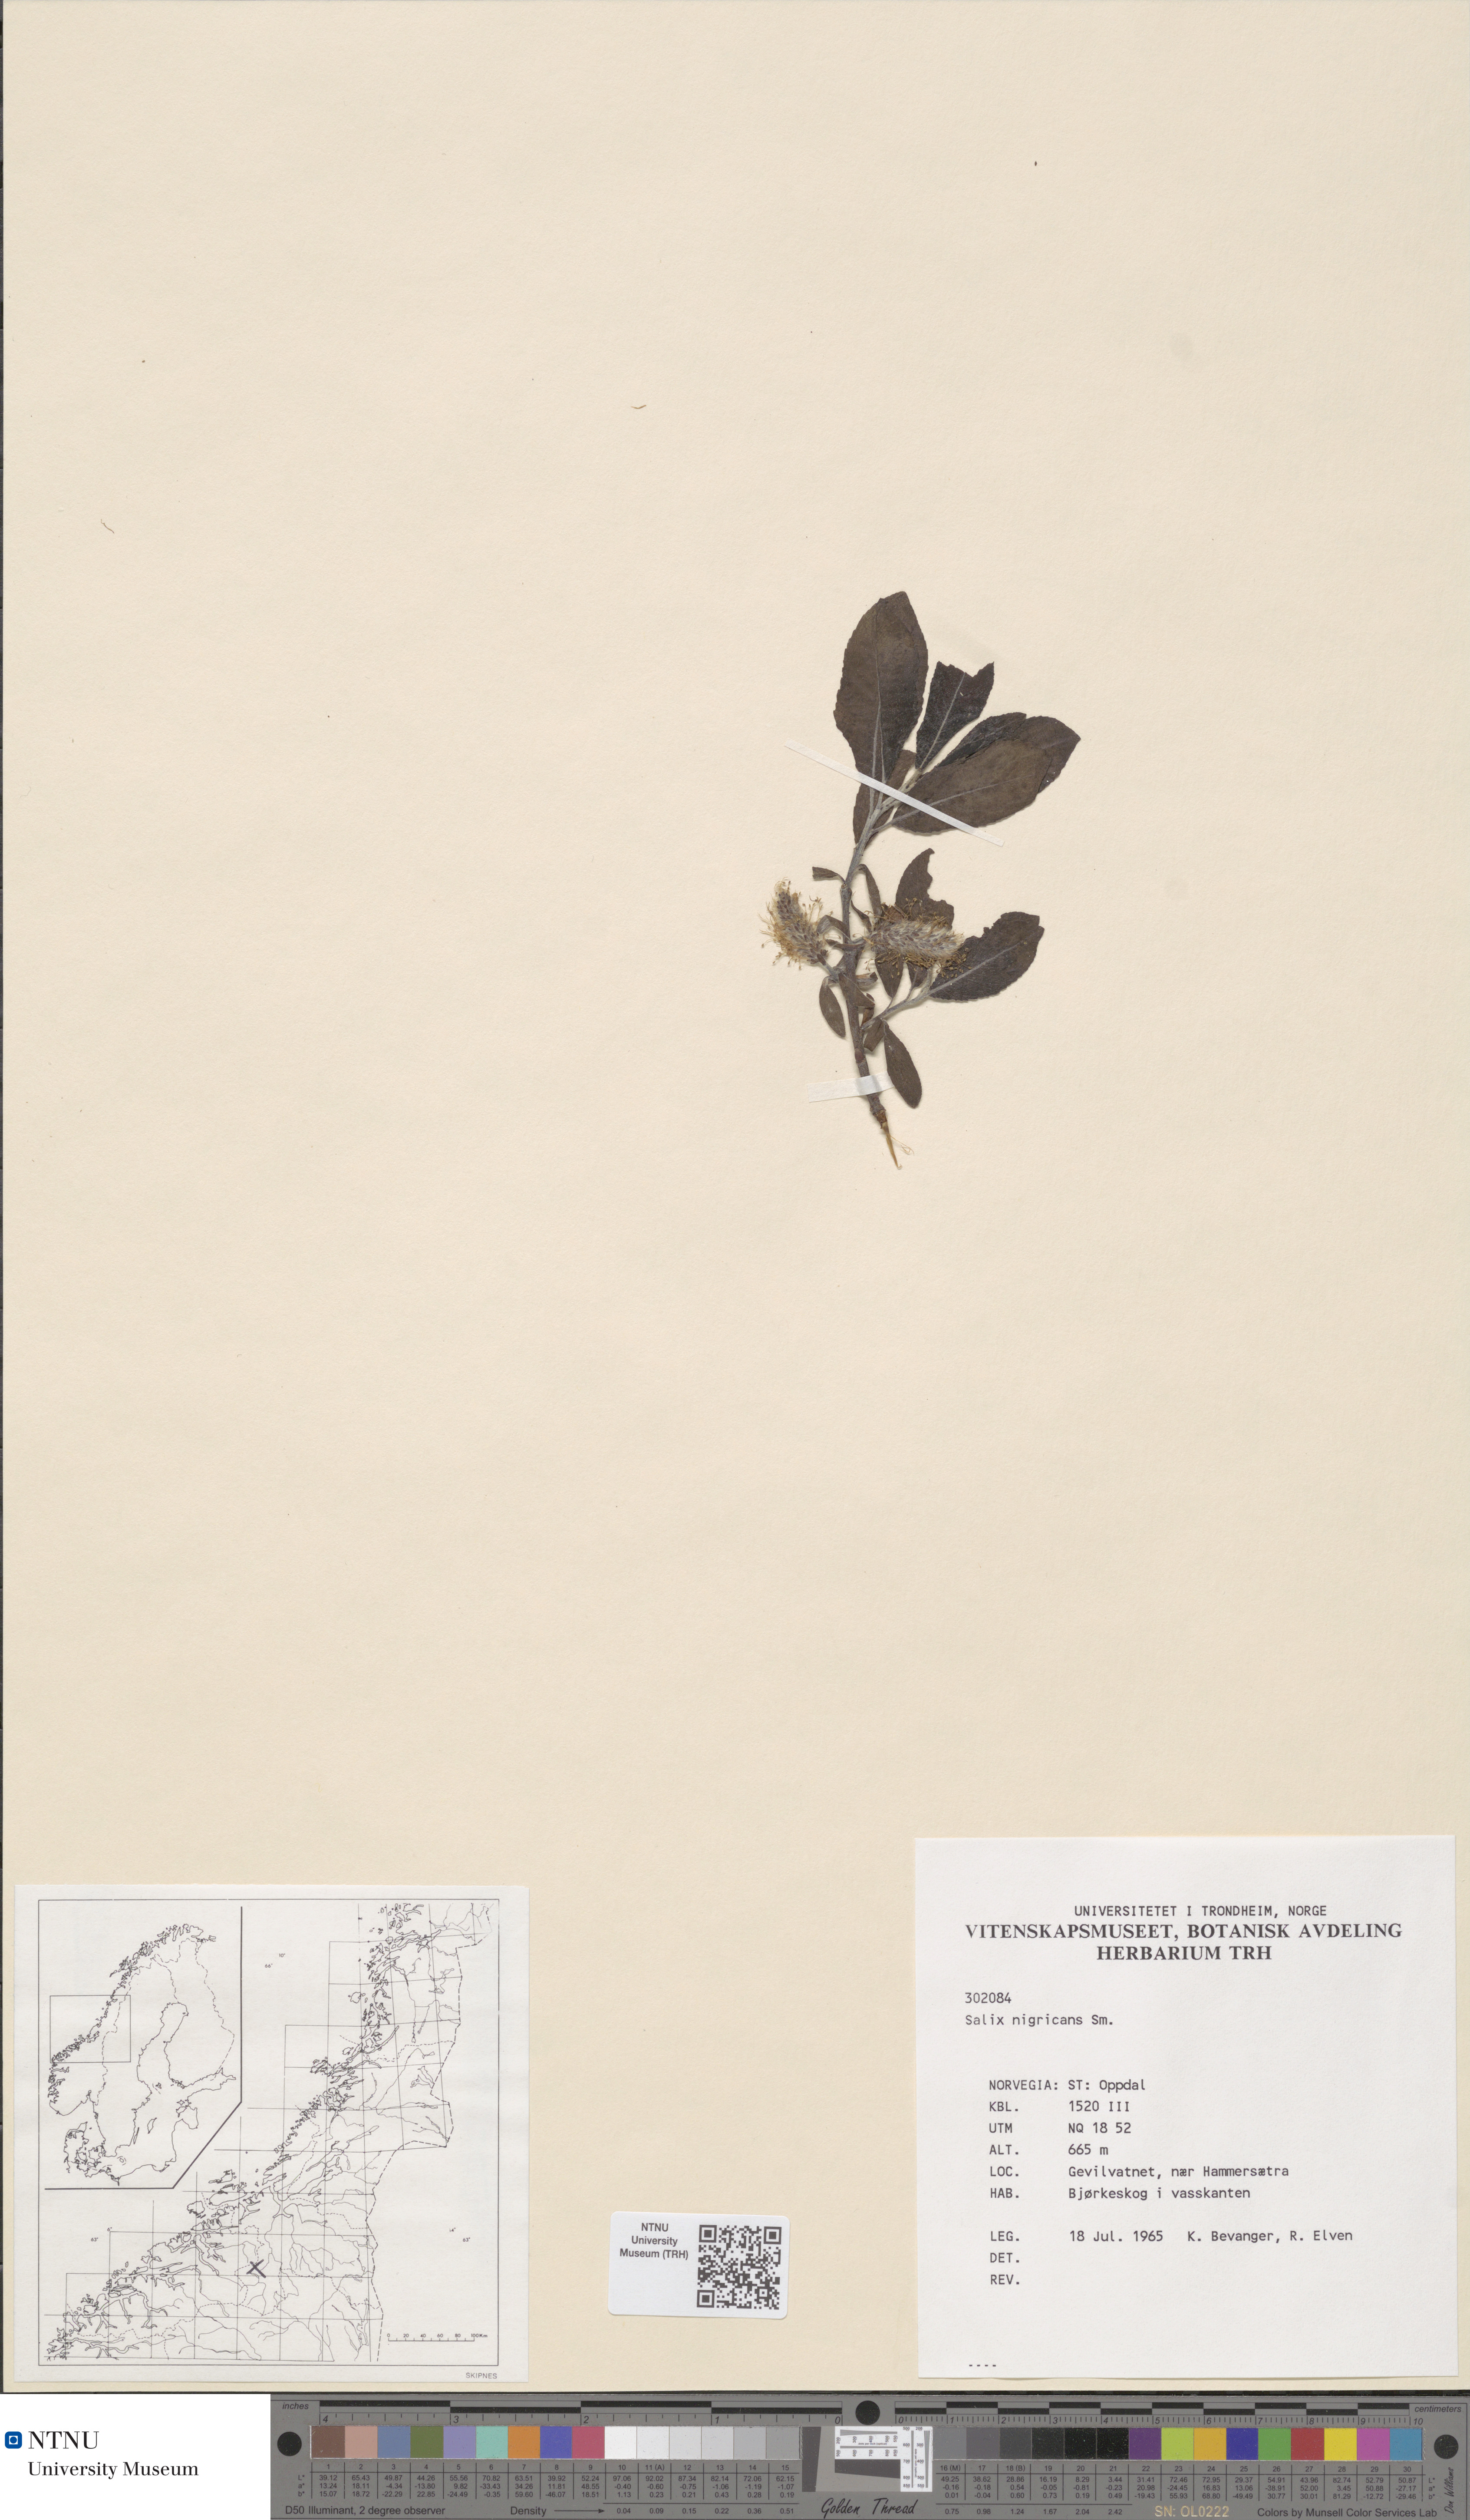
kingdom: Plantae
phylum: Tracheophyta
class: Magnoliopsida
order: Malpighiales
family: Salicaceae
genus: Salix
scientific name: Salix myrsinifolia
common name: Dark-leaved willow
